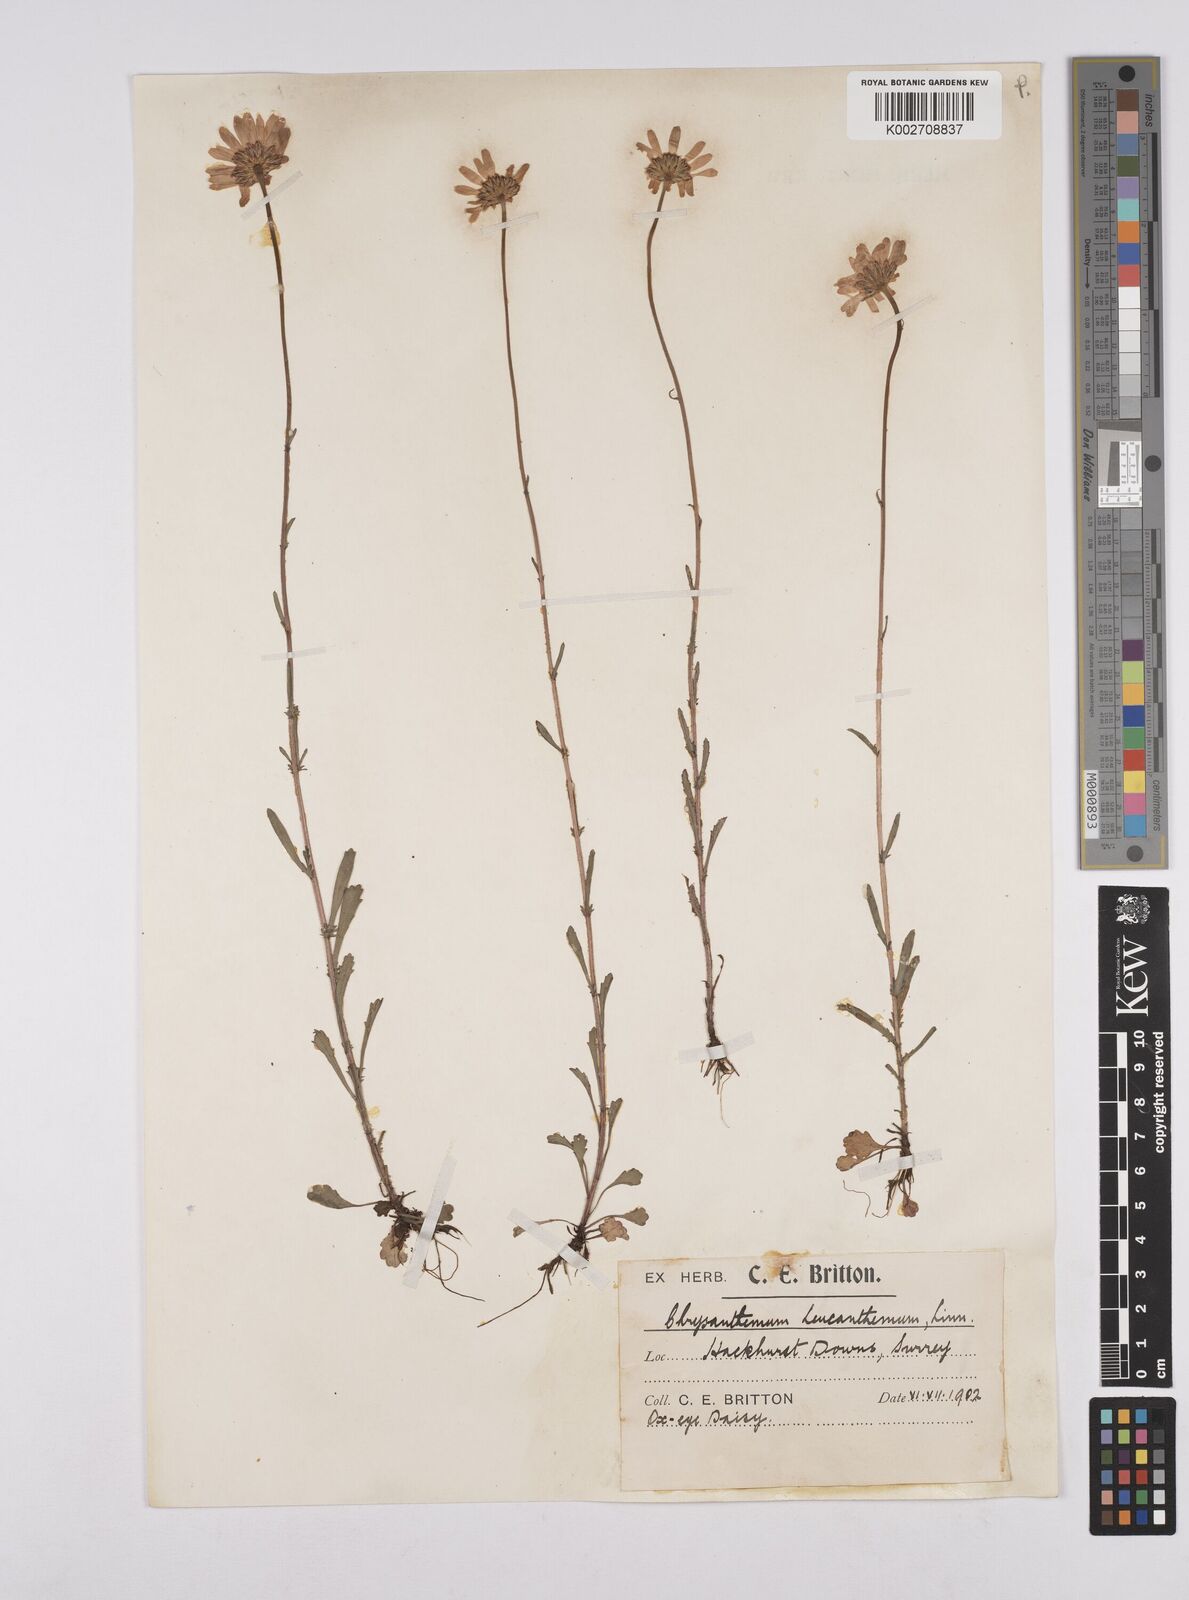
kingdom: Plantae
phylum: Tracheophyta
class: Magnoliopsida
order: Asterales
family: Asteraceae
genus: Leucanthemum
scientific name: Leucanthemum
